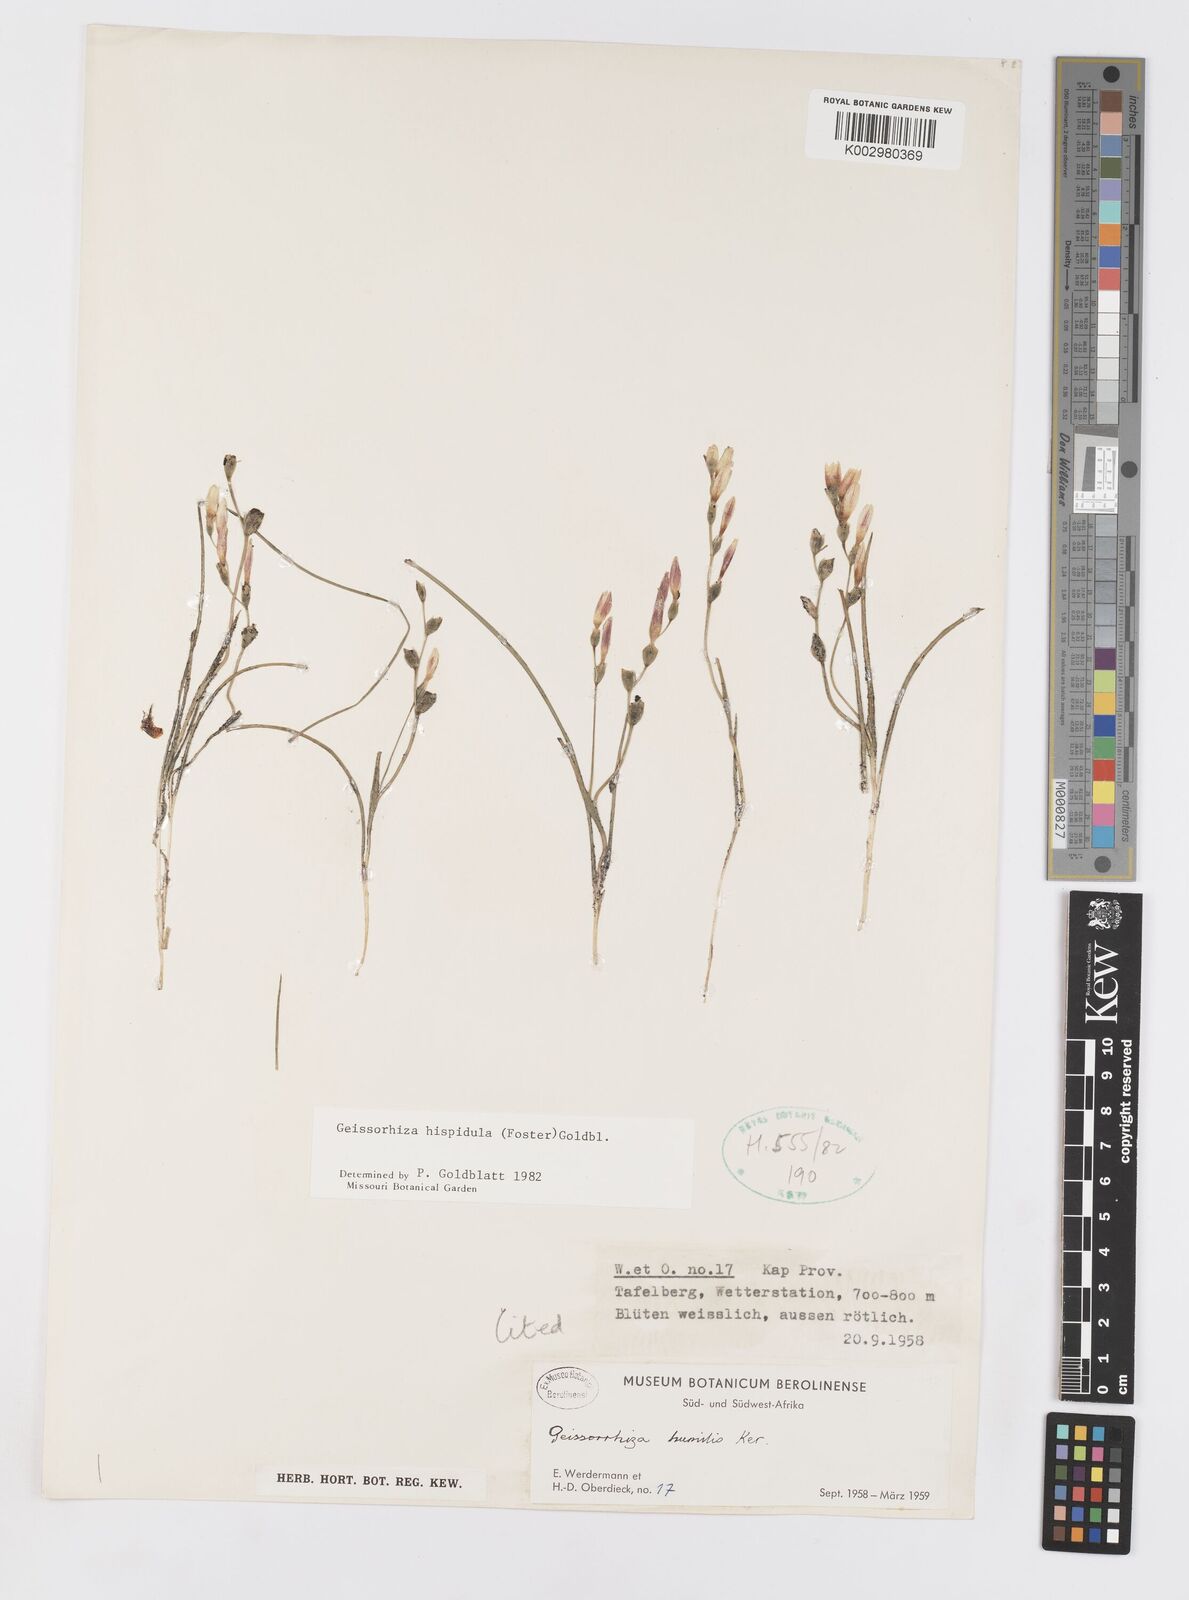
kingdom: Plantae
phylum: Tracheophyta
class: Liliopsida
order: Asparagales
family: Iridaceae
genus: Geissorhiza
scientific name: Geissorhiza hispidula
